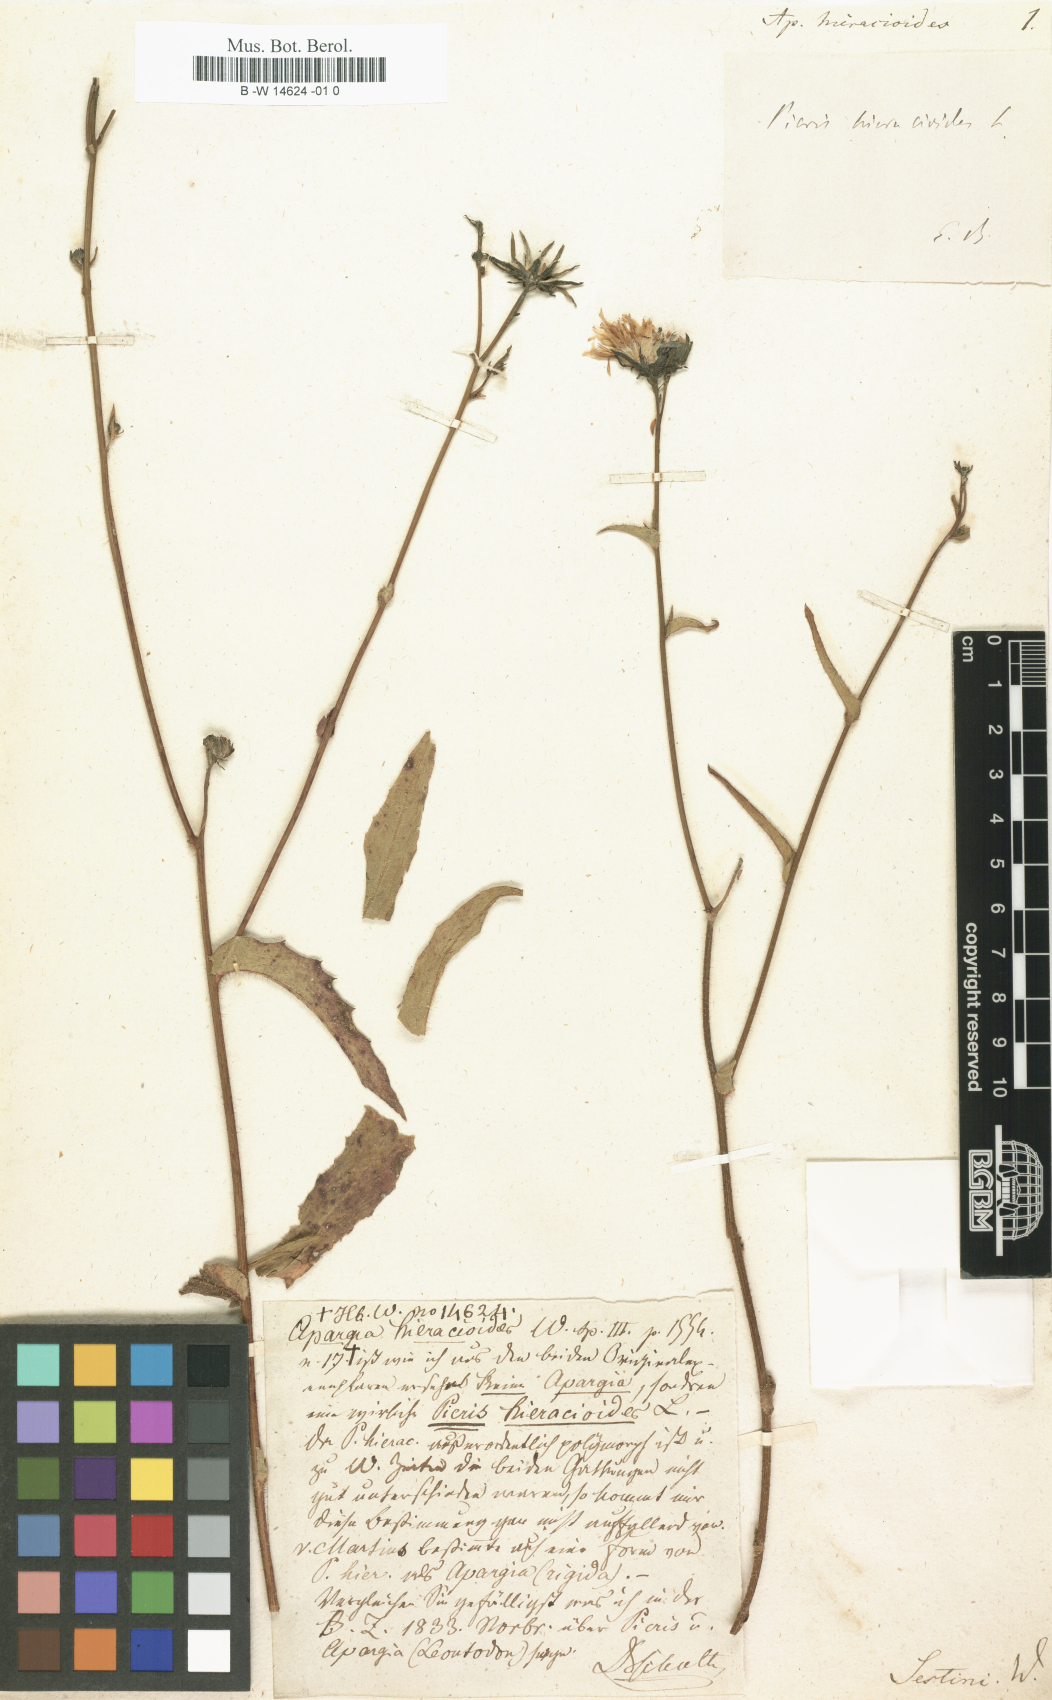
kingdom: Plantae
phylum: Tracheophyta
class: Magnoliopsida
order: Asterales
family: Asteraceae
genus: Picris
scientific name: Picris hieracioides
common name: Hawkweed oxtongue
